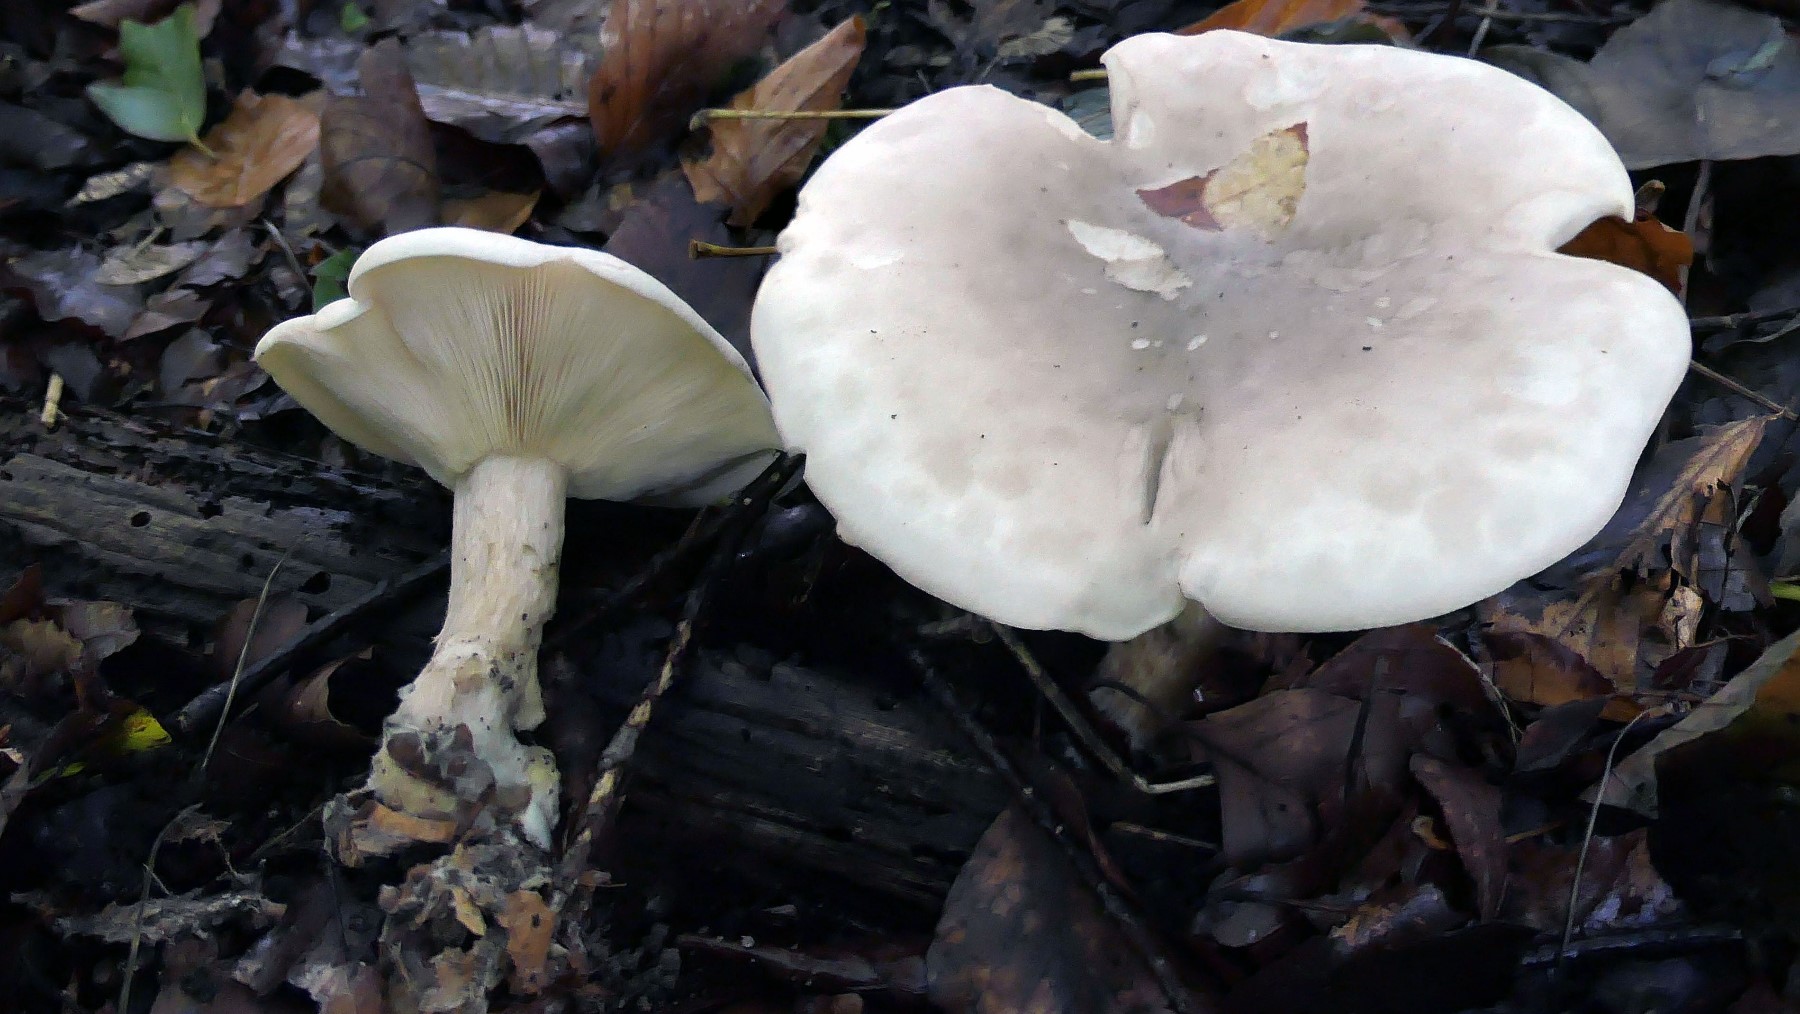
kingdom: Fungi
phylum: Basidiomycota
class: Agaricomycetes
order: Agaricales
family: Tricholomataceae
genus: Clitocybe
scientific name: Clitocybe nebularis
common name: tåge-tragthat
